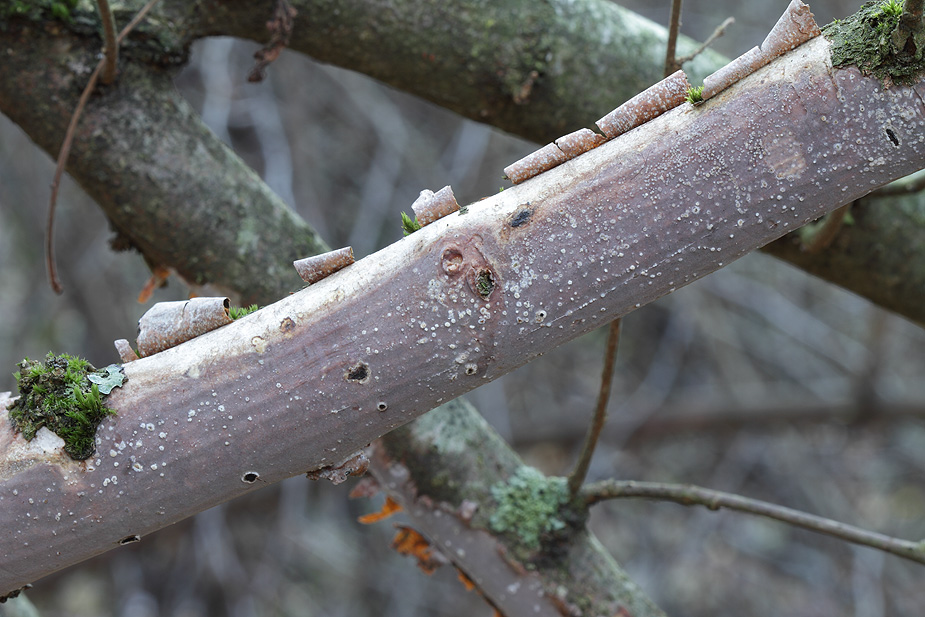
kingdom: Fungi
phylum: Basidiomycota
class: Agaricomycetes
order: Corticiales
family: Vuilleminiaceae
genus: Vuilleminia
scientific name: Vuilleminia coryli
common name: hassel-barksprænger
